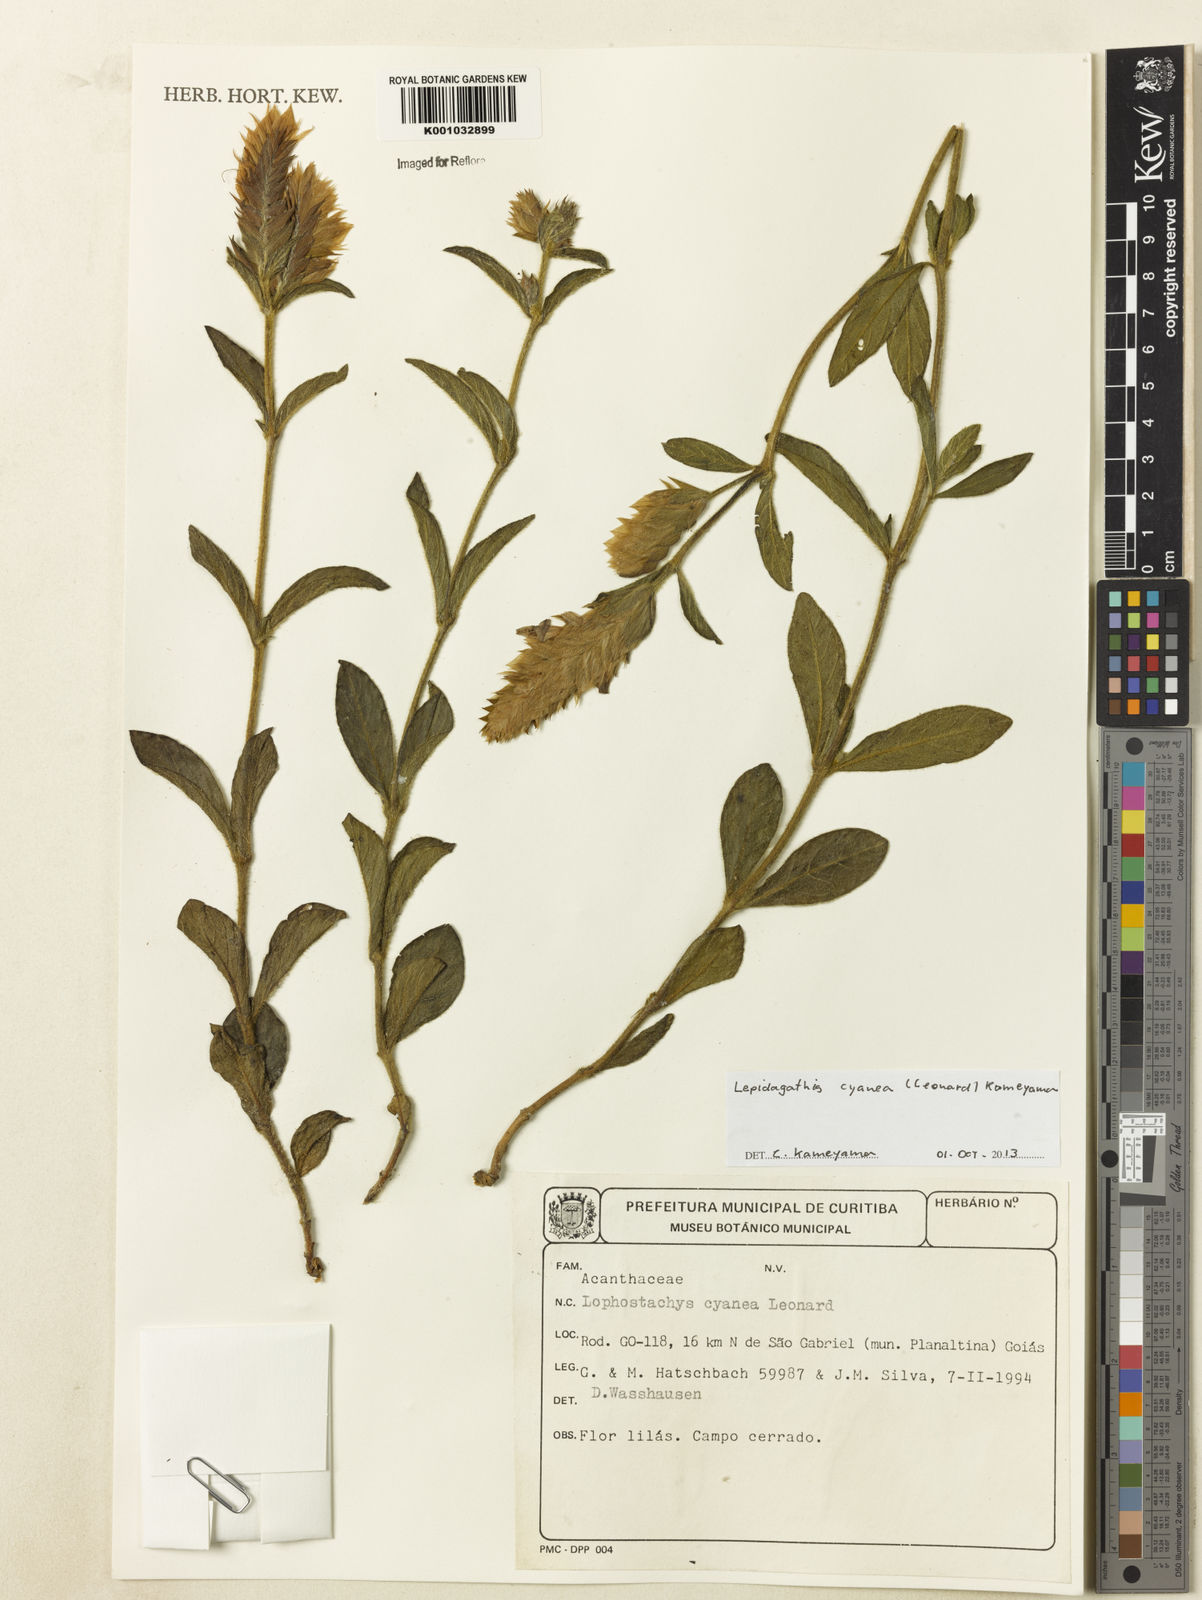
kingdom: Plantae
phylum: Tracheophyta
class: Magnoliopsida
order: Lamiales
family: Acanthaceae
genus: Lepidagathis
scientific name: Lepidagathis cyanea
